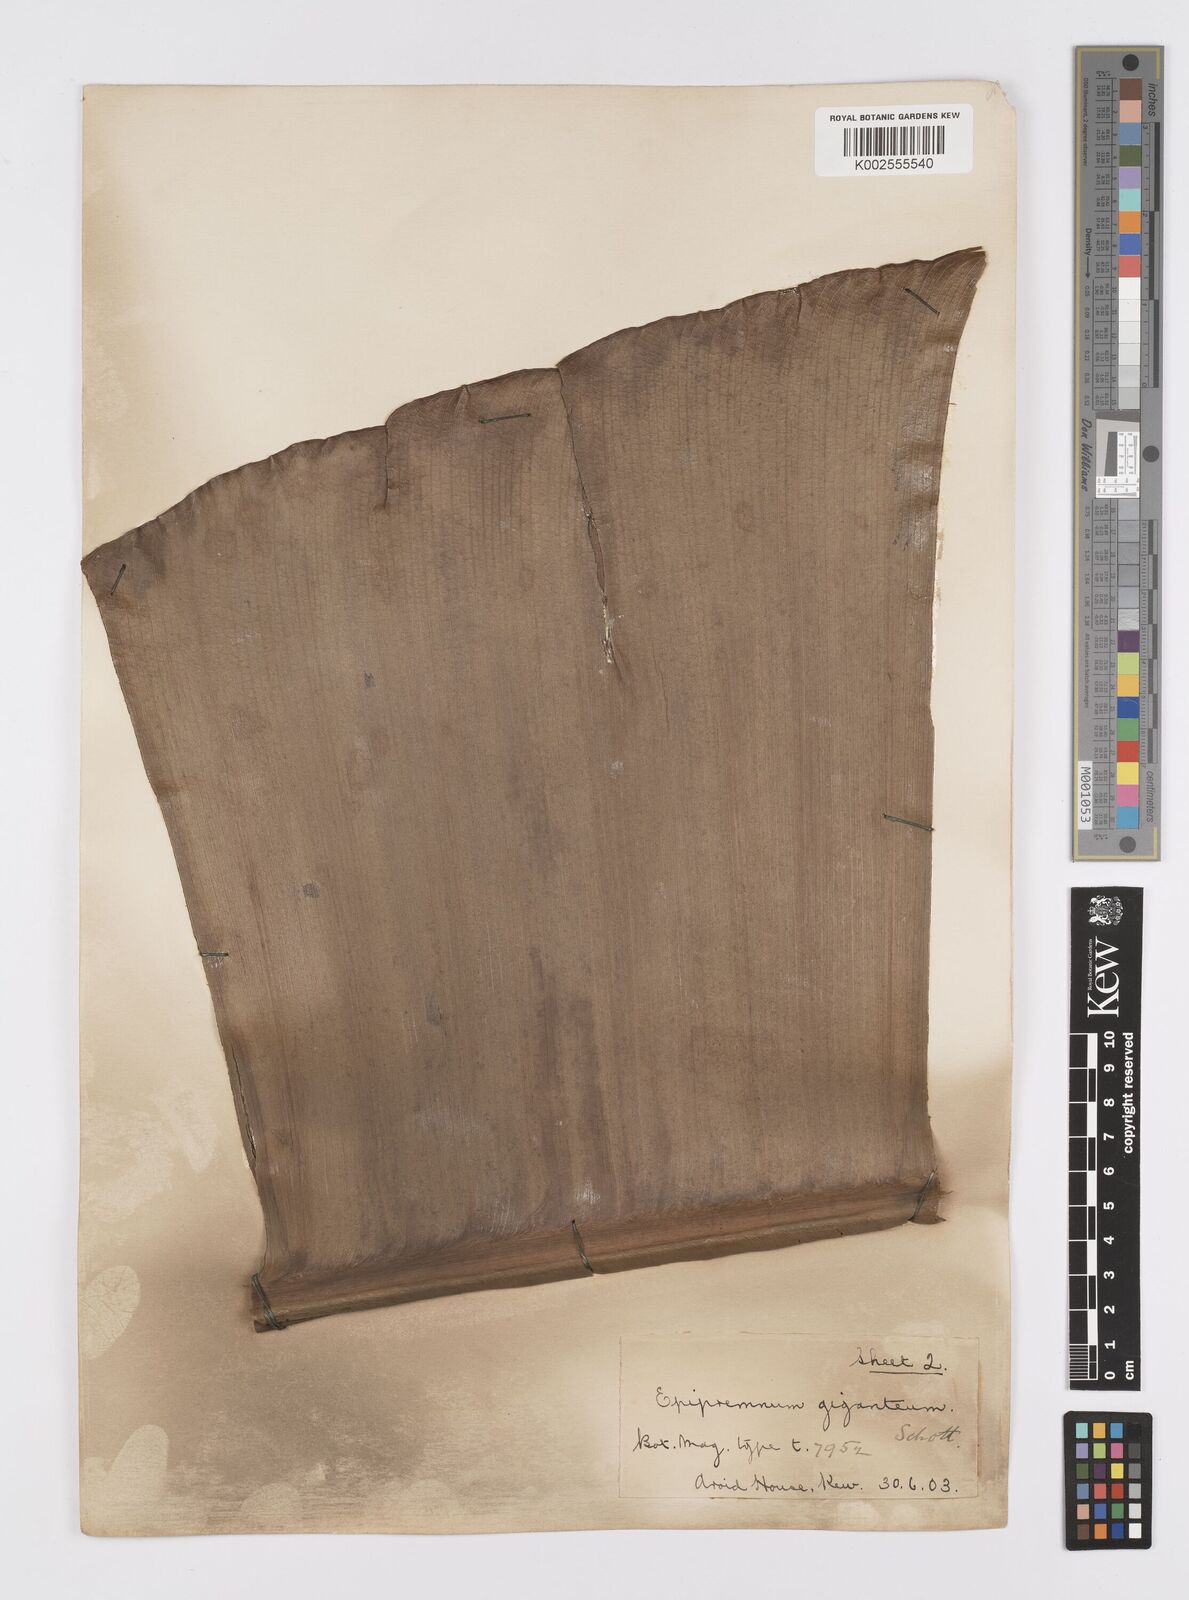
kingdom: Plantae
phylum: Tracheophyta
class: Liliopsida
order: Alismatales
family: Araceae
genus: Epipremnum
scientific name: Epipremnum giganteum
